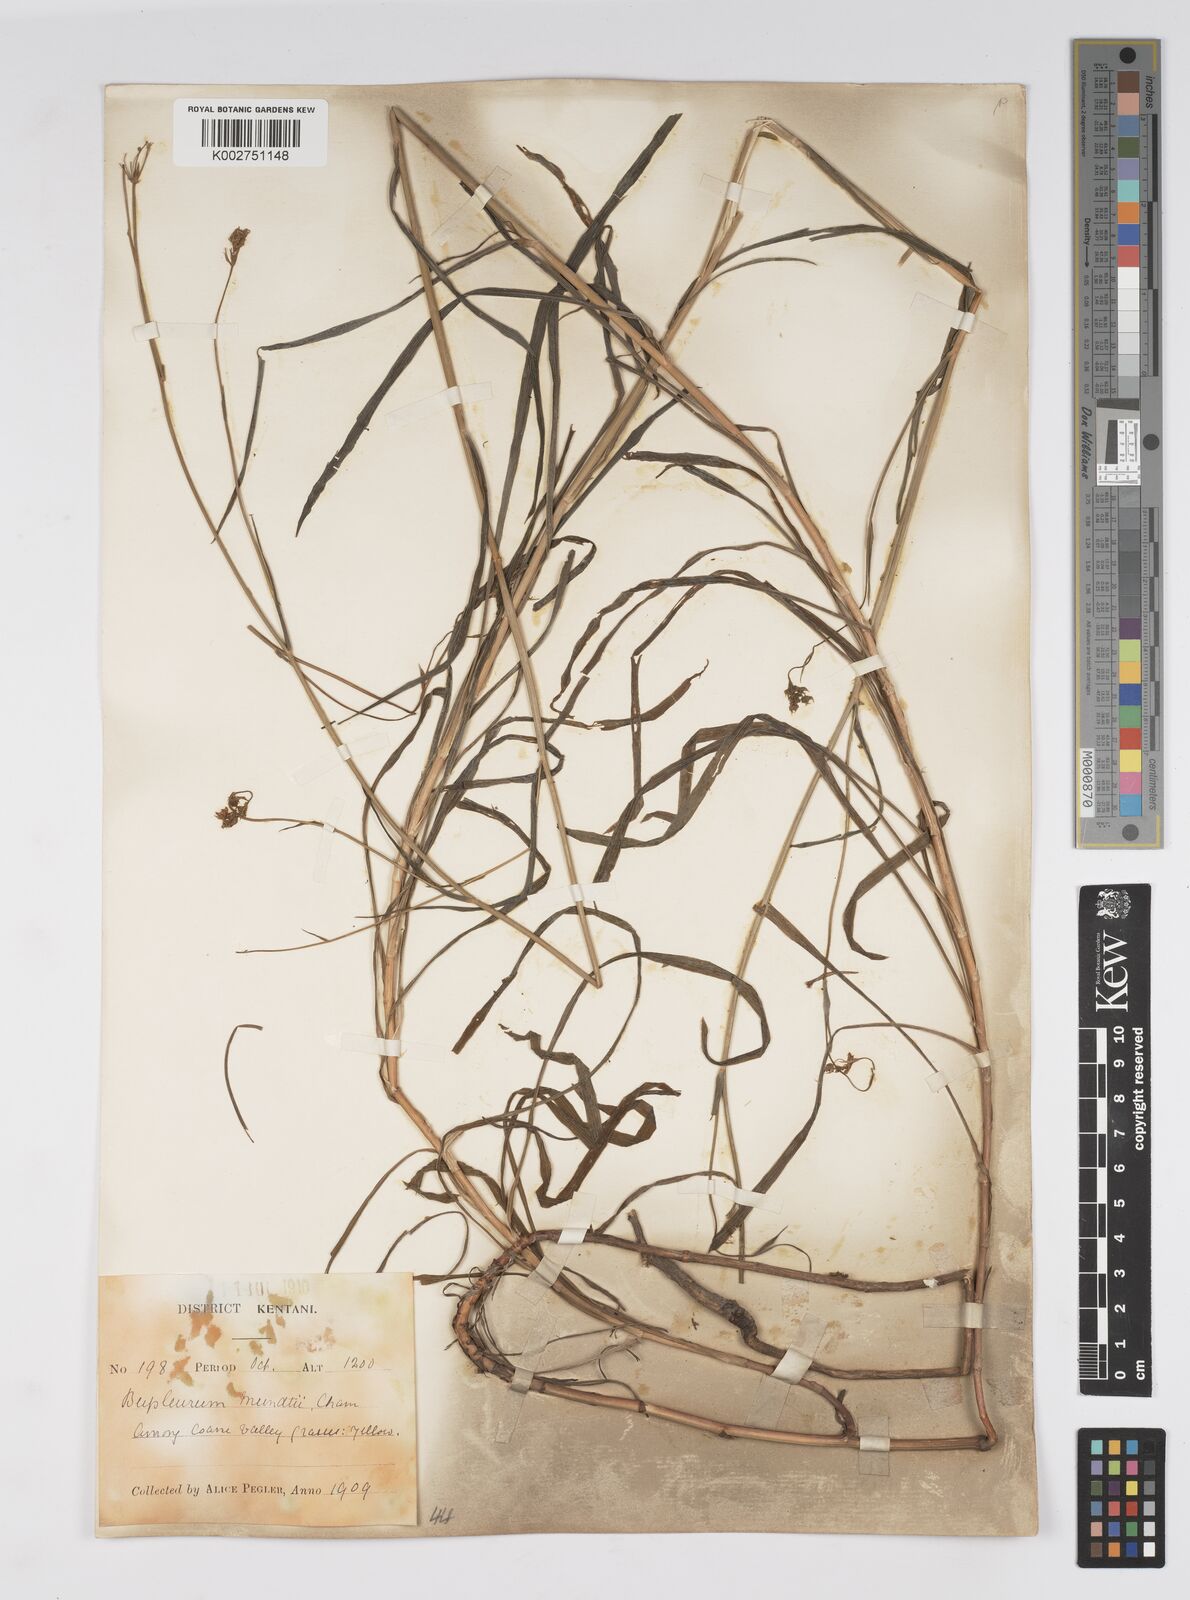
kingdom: Plantae
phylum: Tracheophyta
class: Magnoliopsida
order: Apiales
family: Apiaceae
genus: Bupleurum
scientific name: Bupleurum mundii
